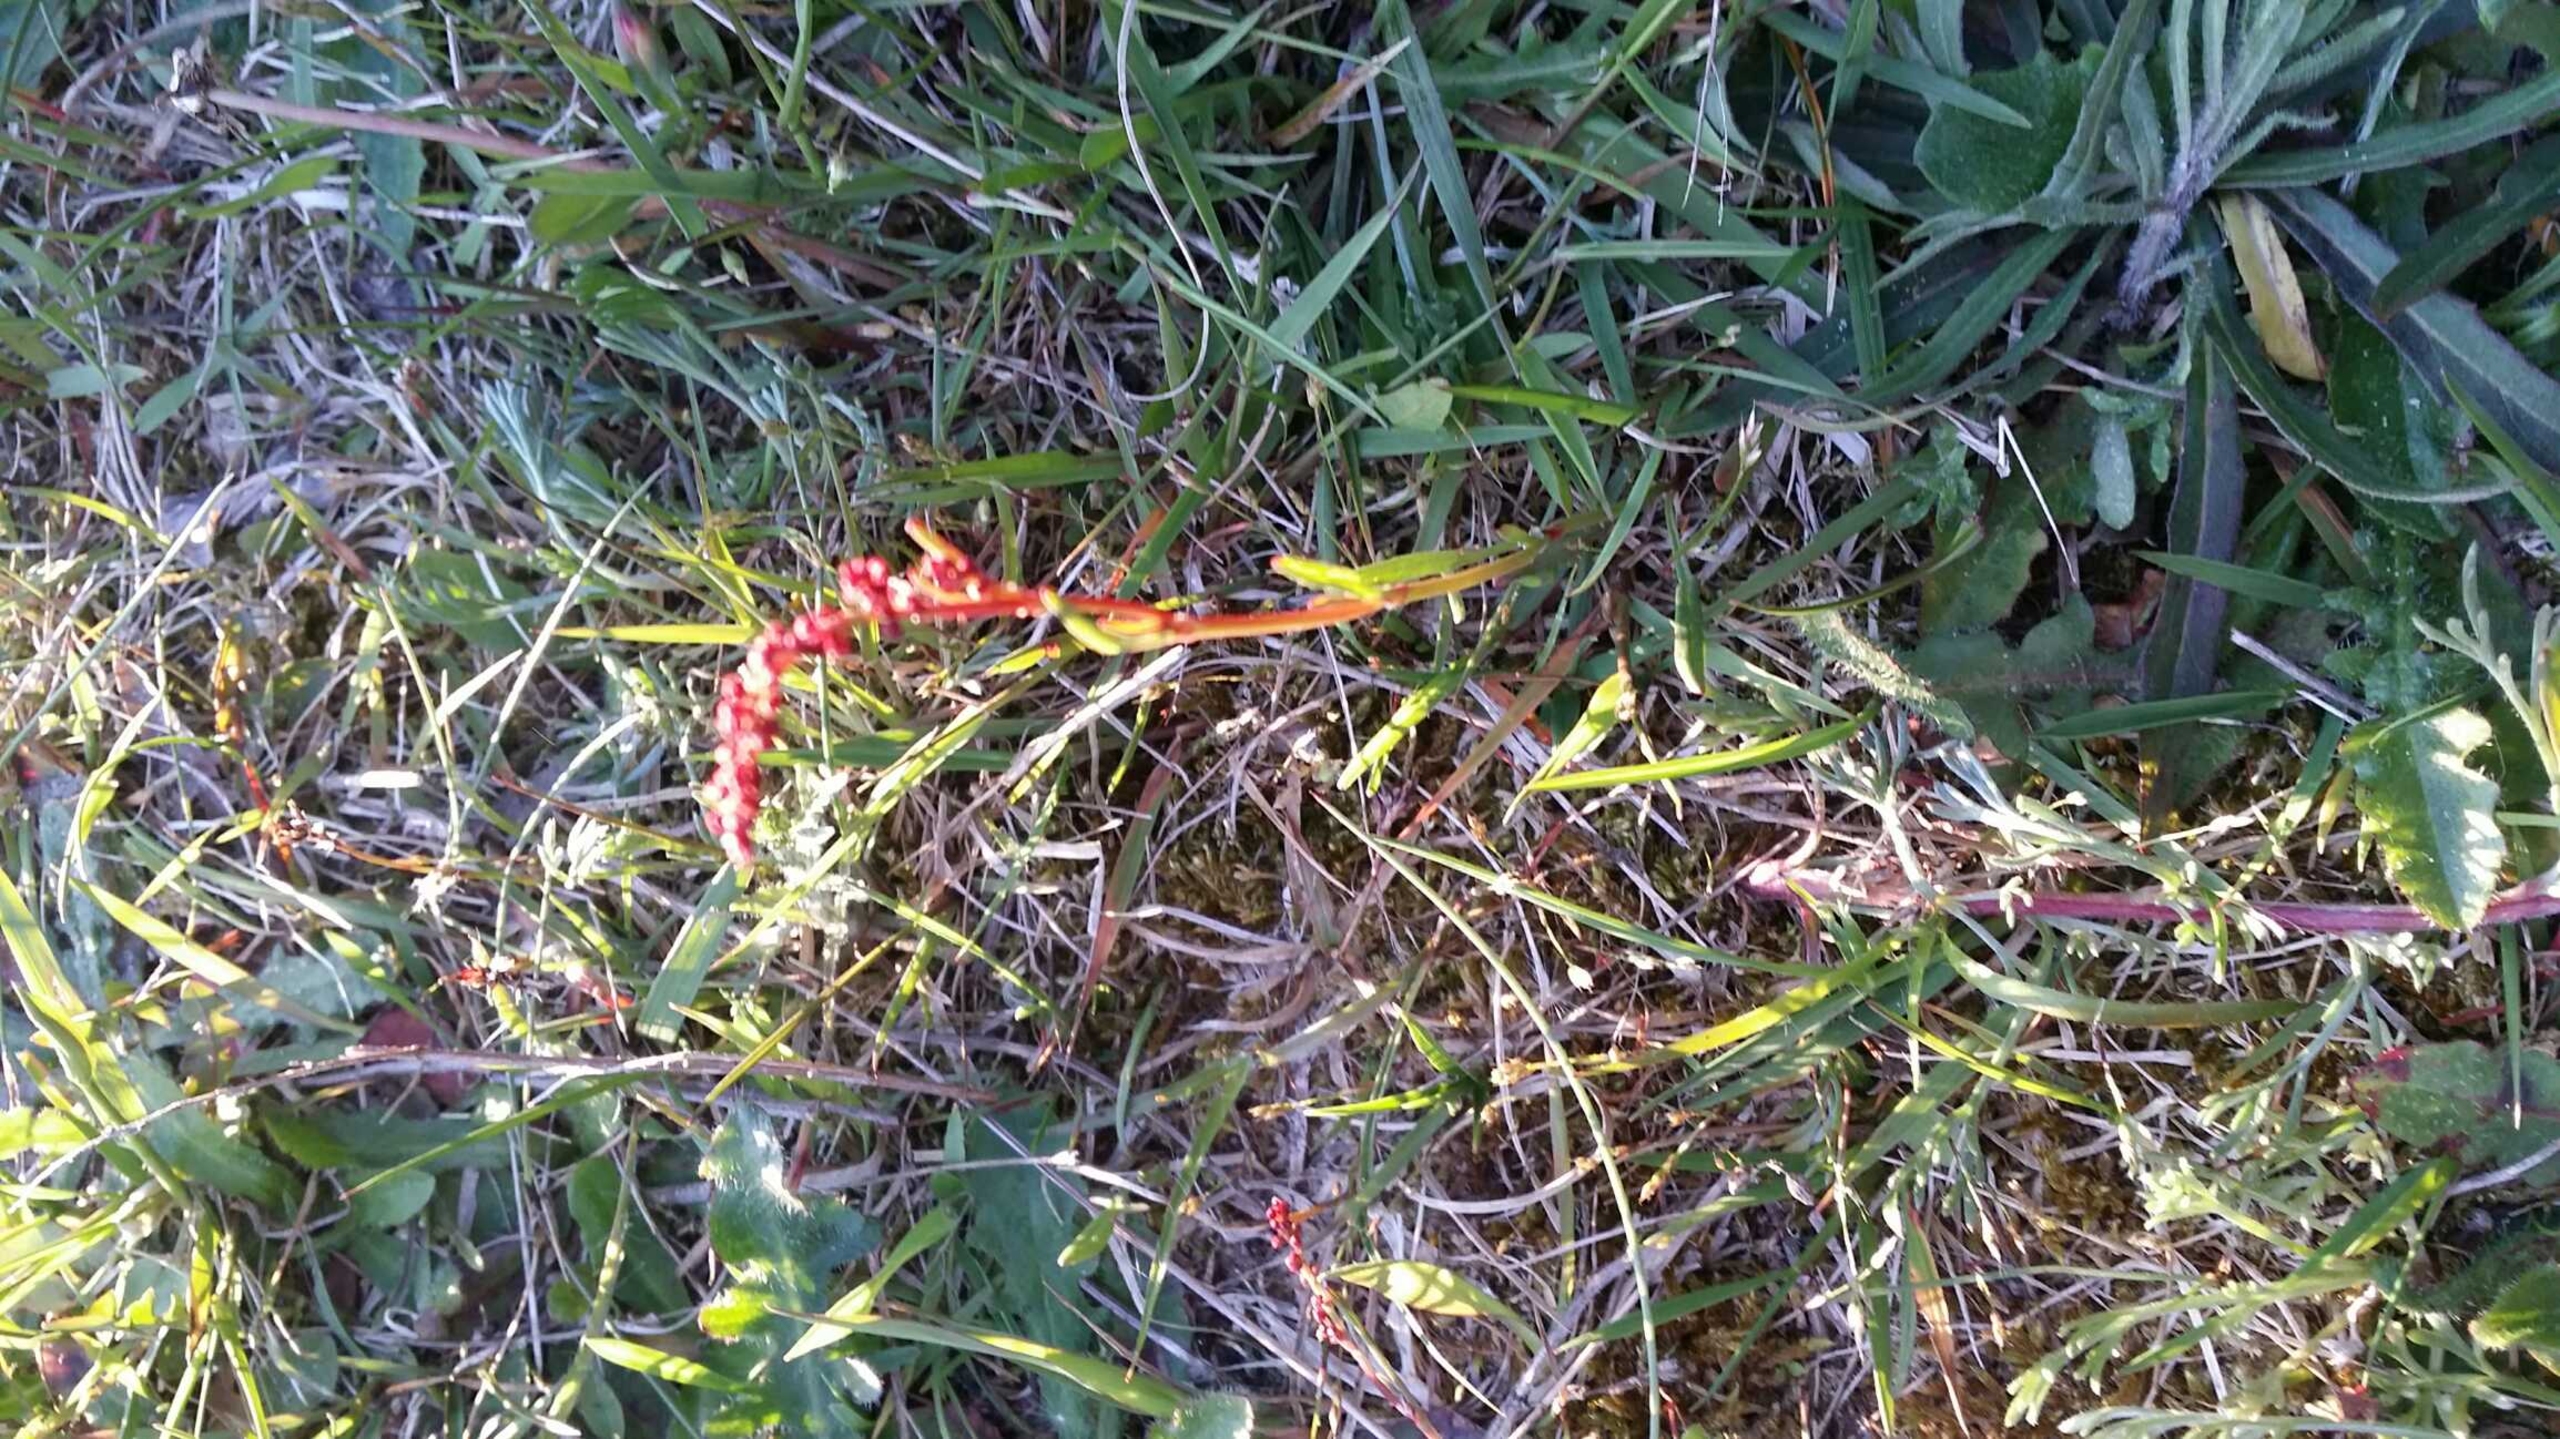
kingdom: Plantae
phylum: Tracheophyta
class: Magnoliopsida
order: Caryophyllales
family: Polygonaceae
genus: Rumex
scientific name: Rumex acetosella
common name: Rødknæ
